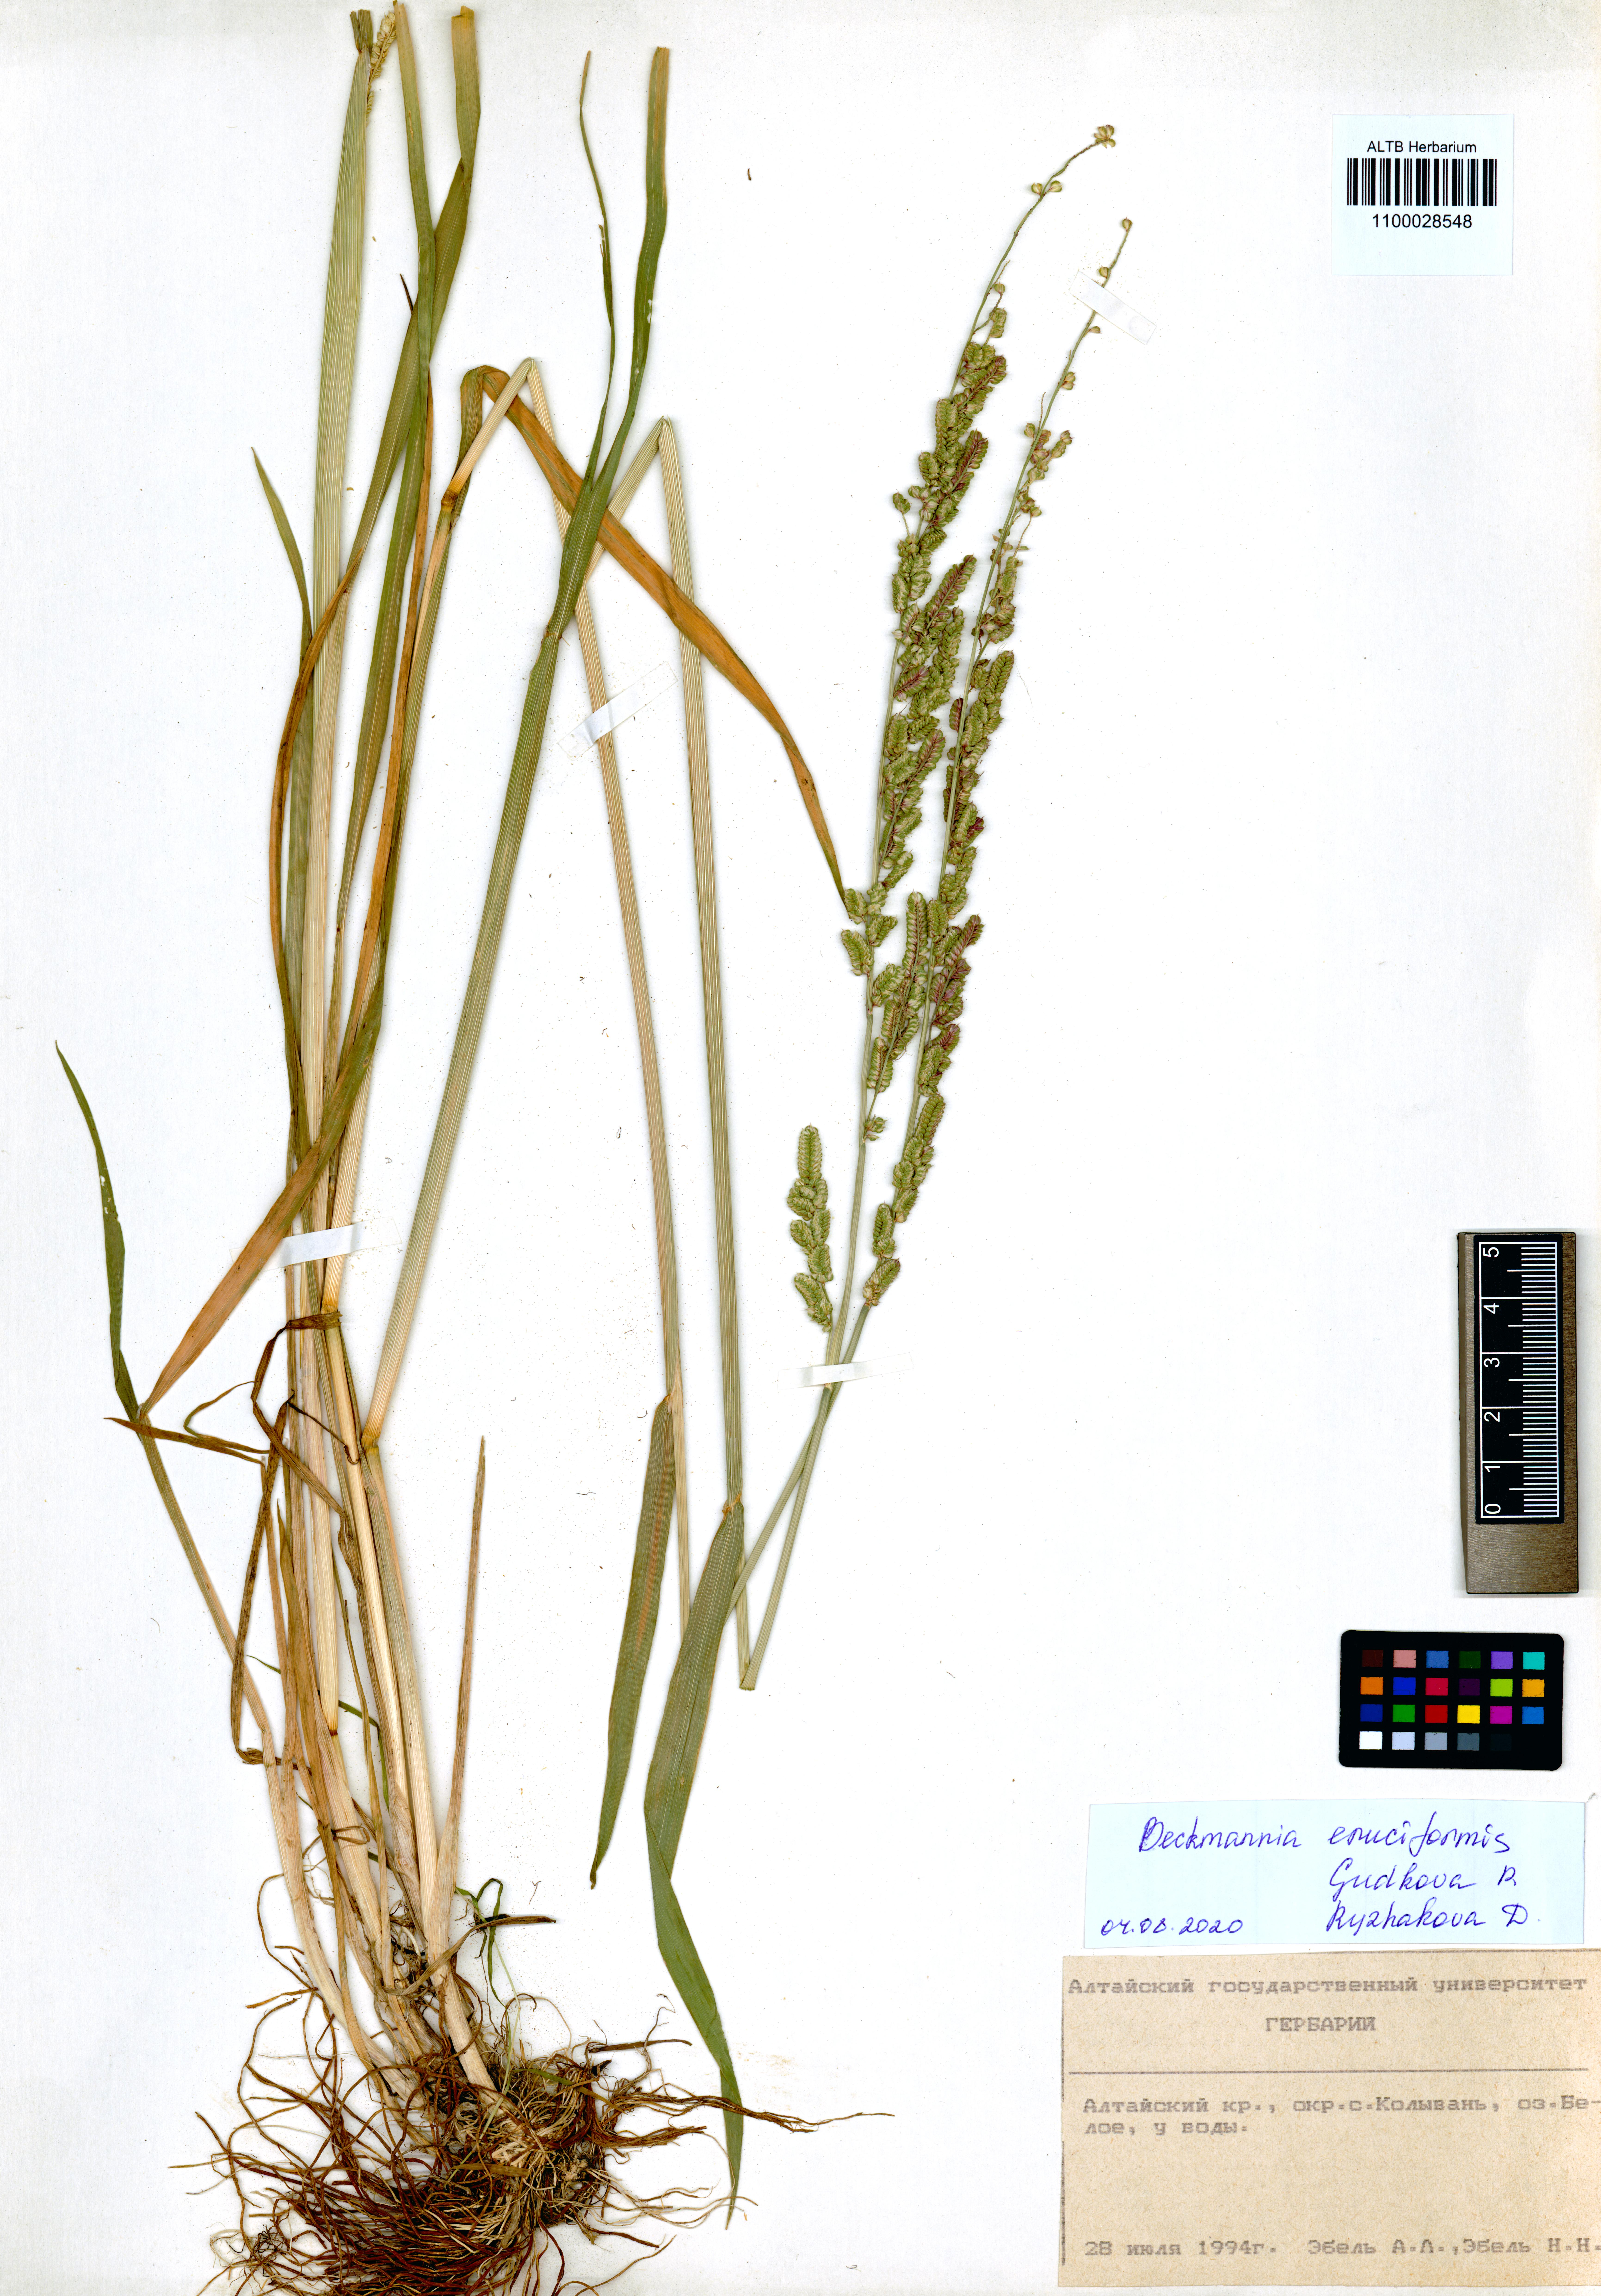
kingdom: Plantae
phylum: Tracheophyta
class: Liliopsida
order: Poales
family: Poaceae
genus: Beckmannia
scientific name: Beckmannia eruciformis
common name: European slough-grass
